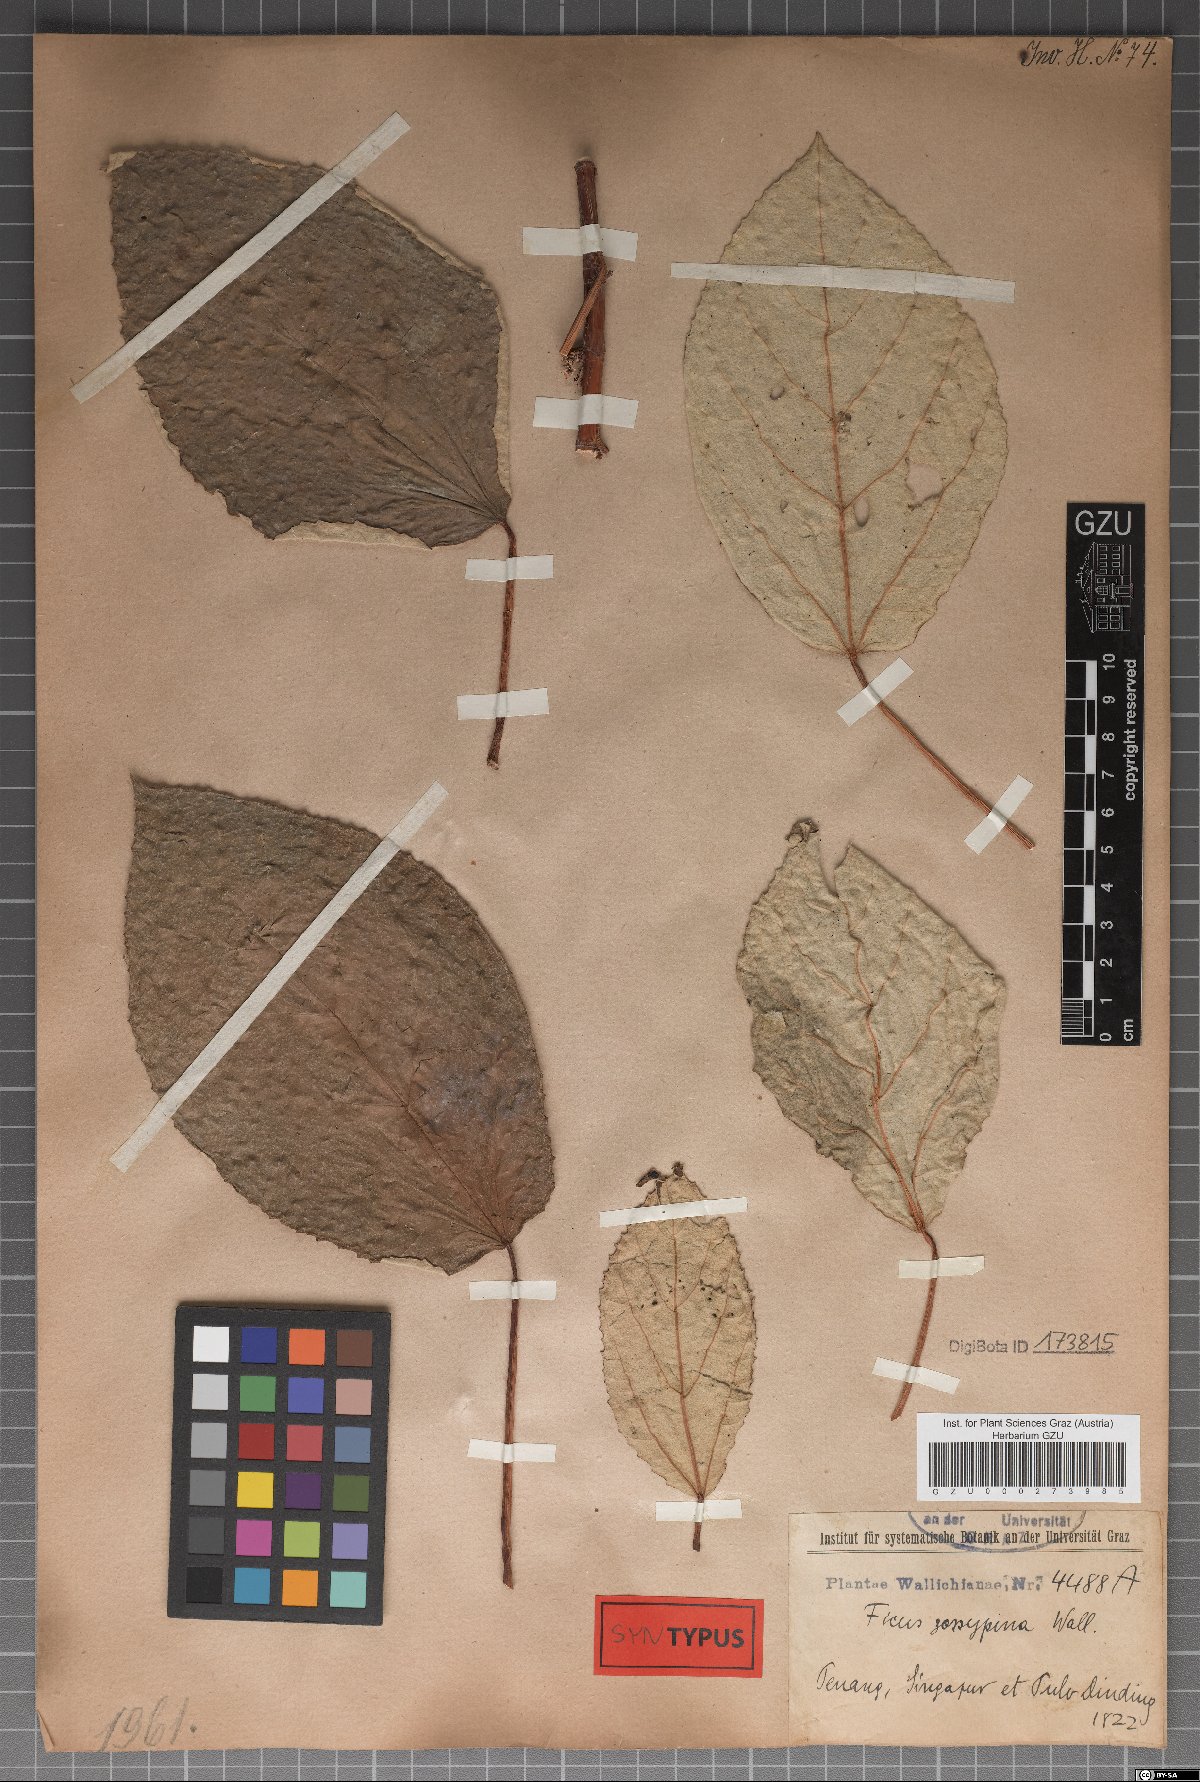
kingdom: Plantae
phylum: Tracheophyta
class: Magnoliopsida
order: Rosales
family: Moraceae
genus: Ficus
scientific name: Ficus grossularioides
